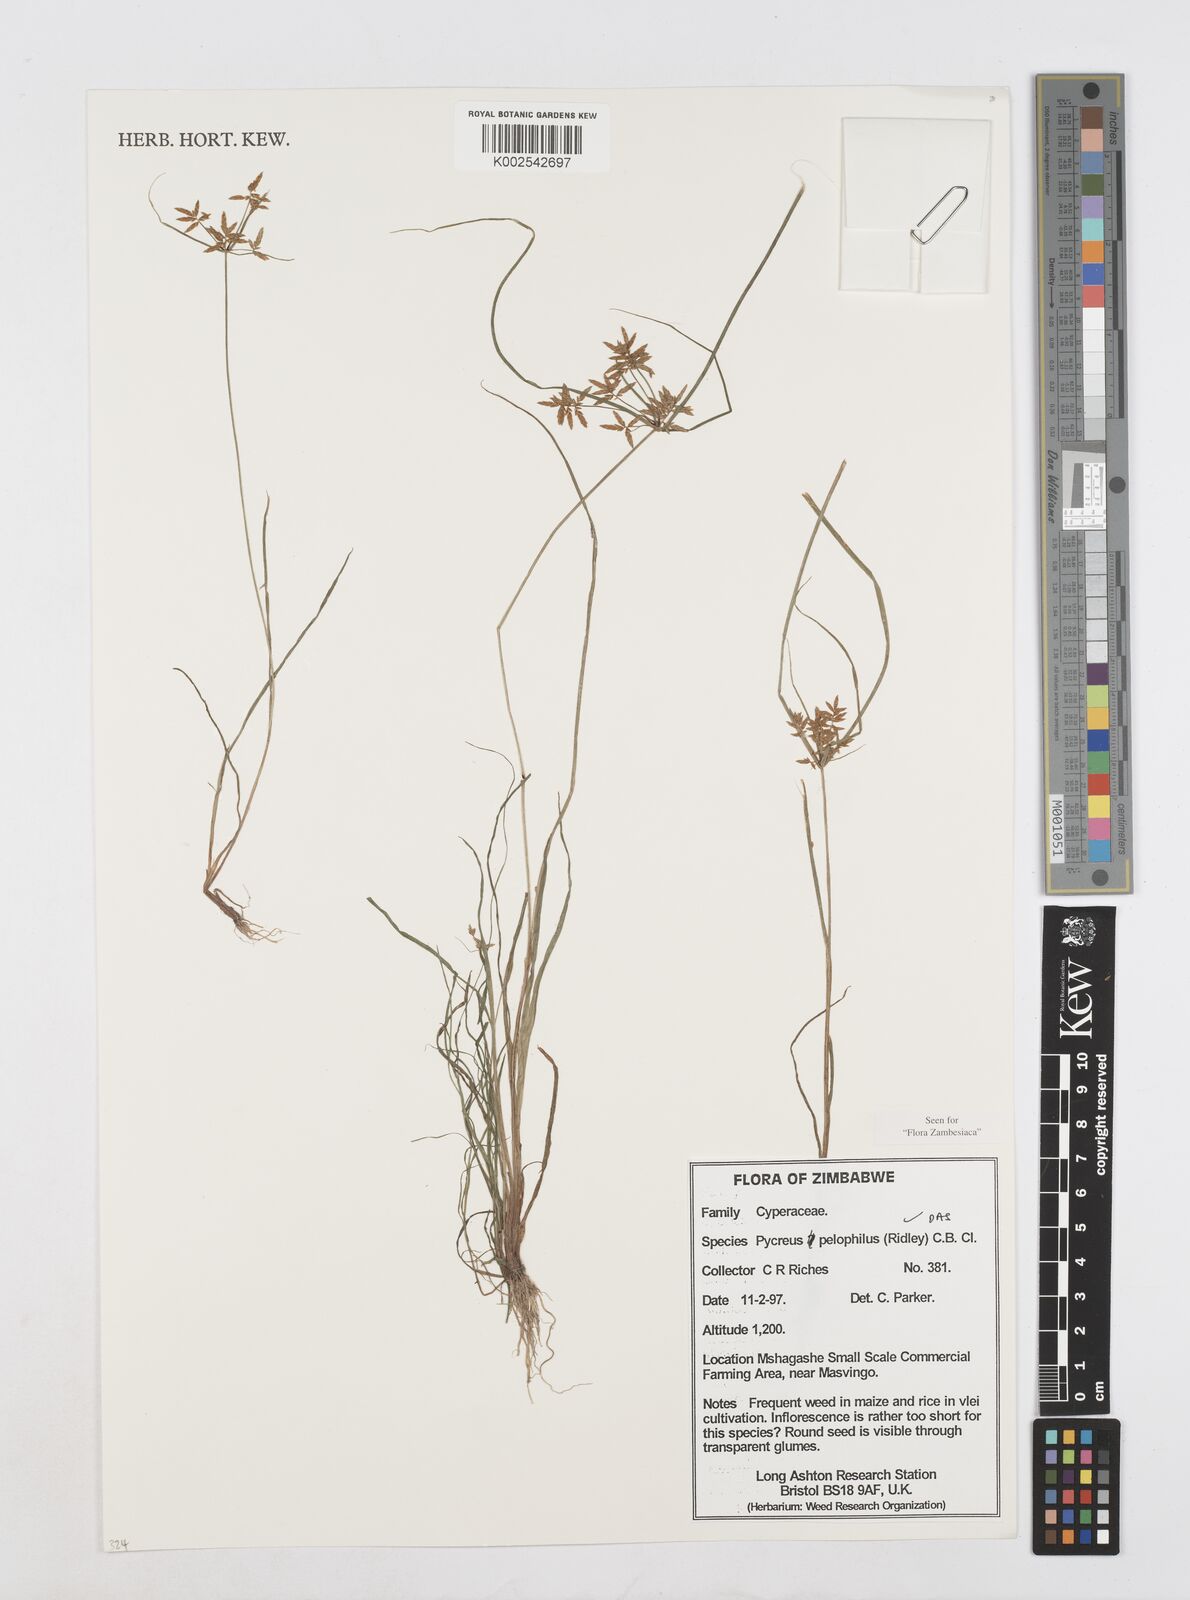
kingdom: Plantae
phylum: Tracheophyta
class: Liliopsida
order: Poales
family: Cyperaceae
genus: Cyperus
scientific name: Cyperus pelophilus
